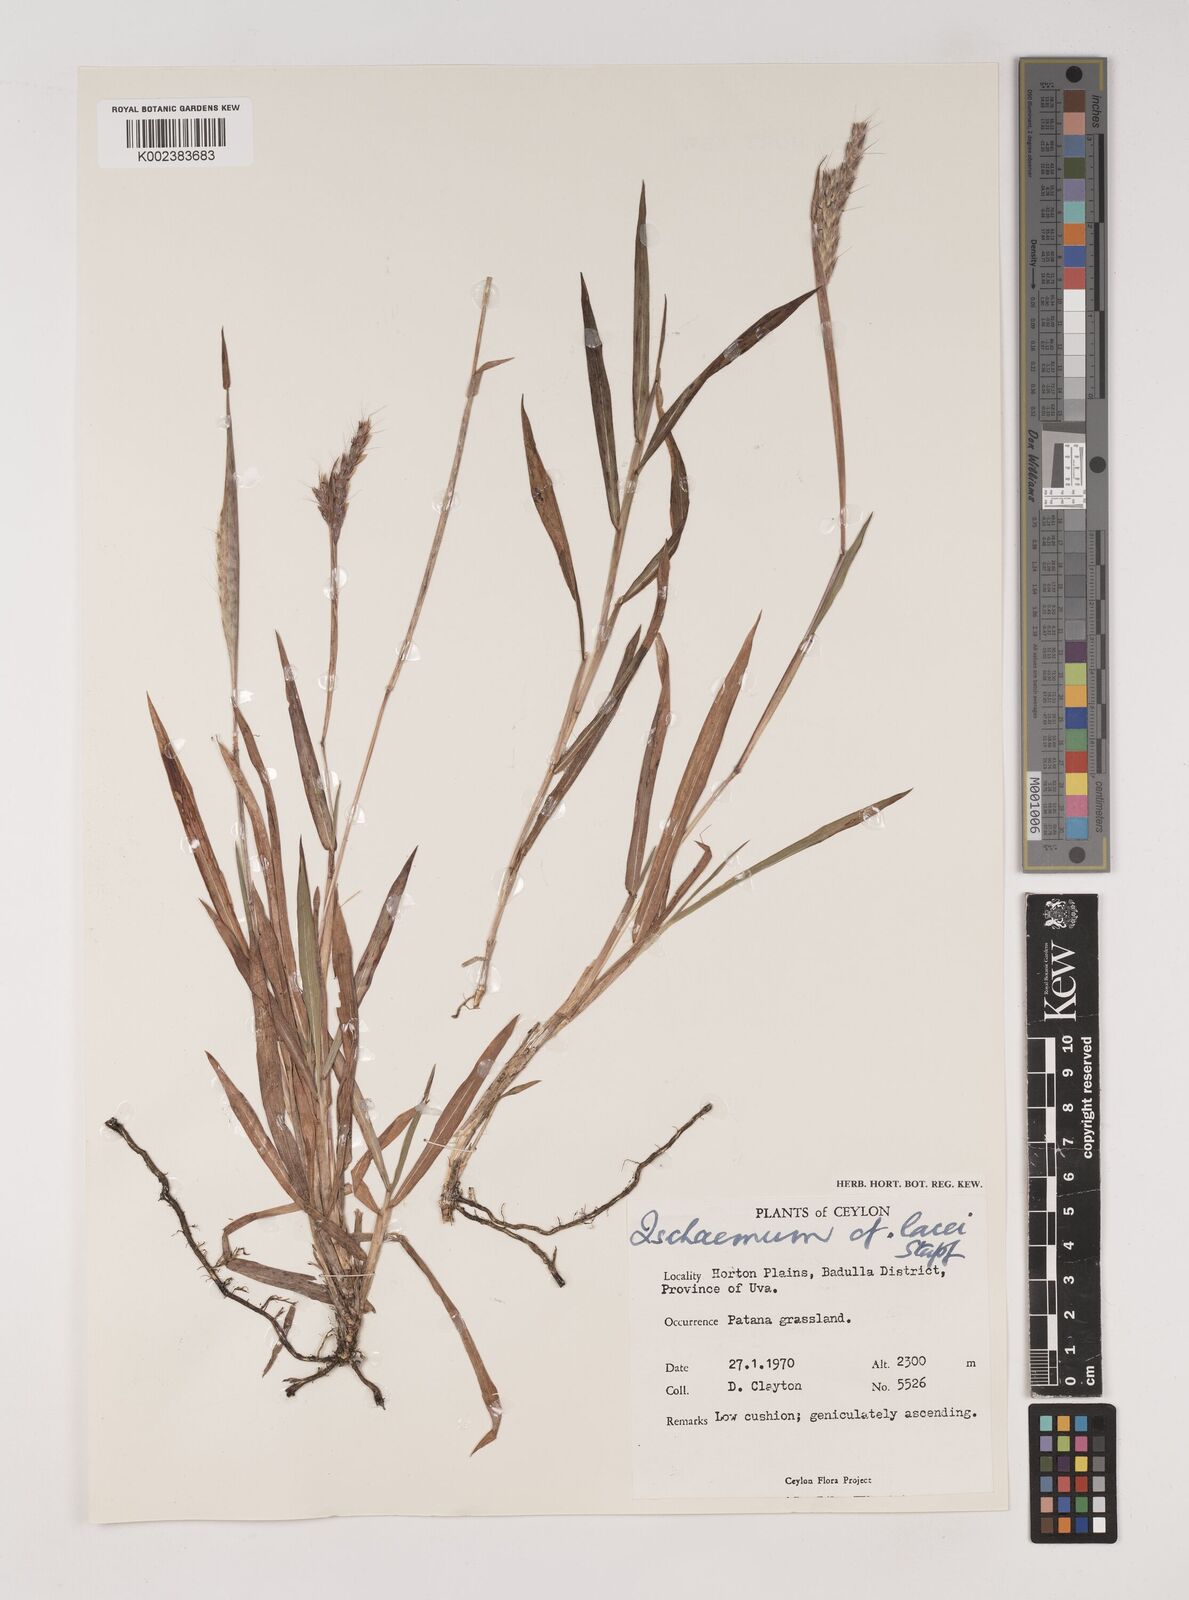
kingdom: Plantae
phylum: Tracheophyta
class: Liliopsida
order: Poales
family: Poaceae
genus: Ischaemum
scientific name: Ischaemum
